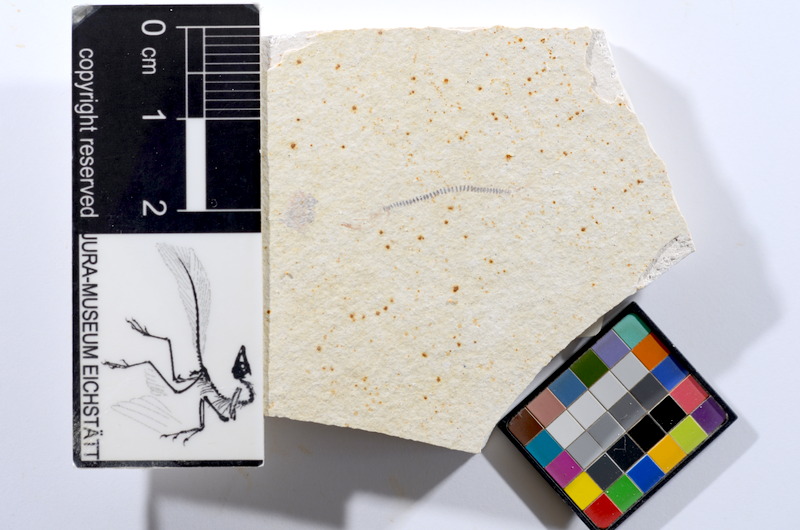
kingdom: Animalia
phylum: Chordata
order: Salmoniformes
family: Orthogonikleithridae
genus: Orthogonikleithrus
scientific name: Orthogonikleithrus hoelli
